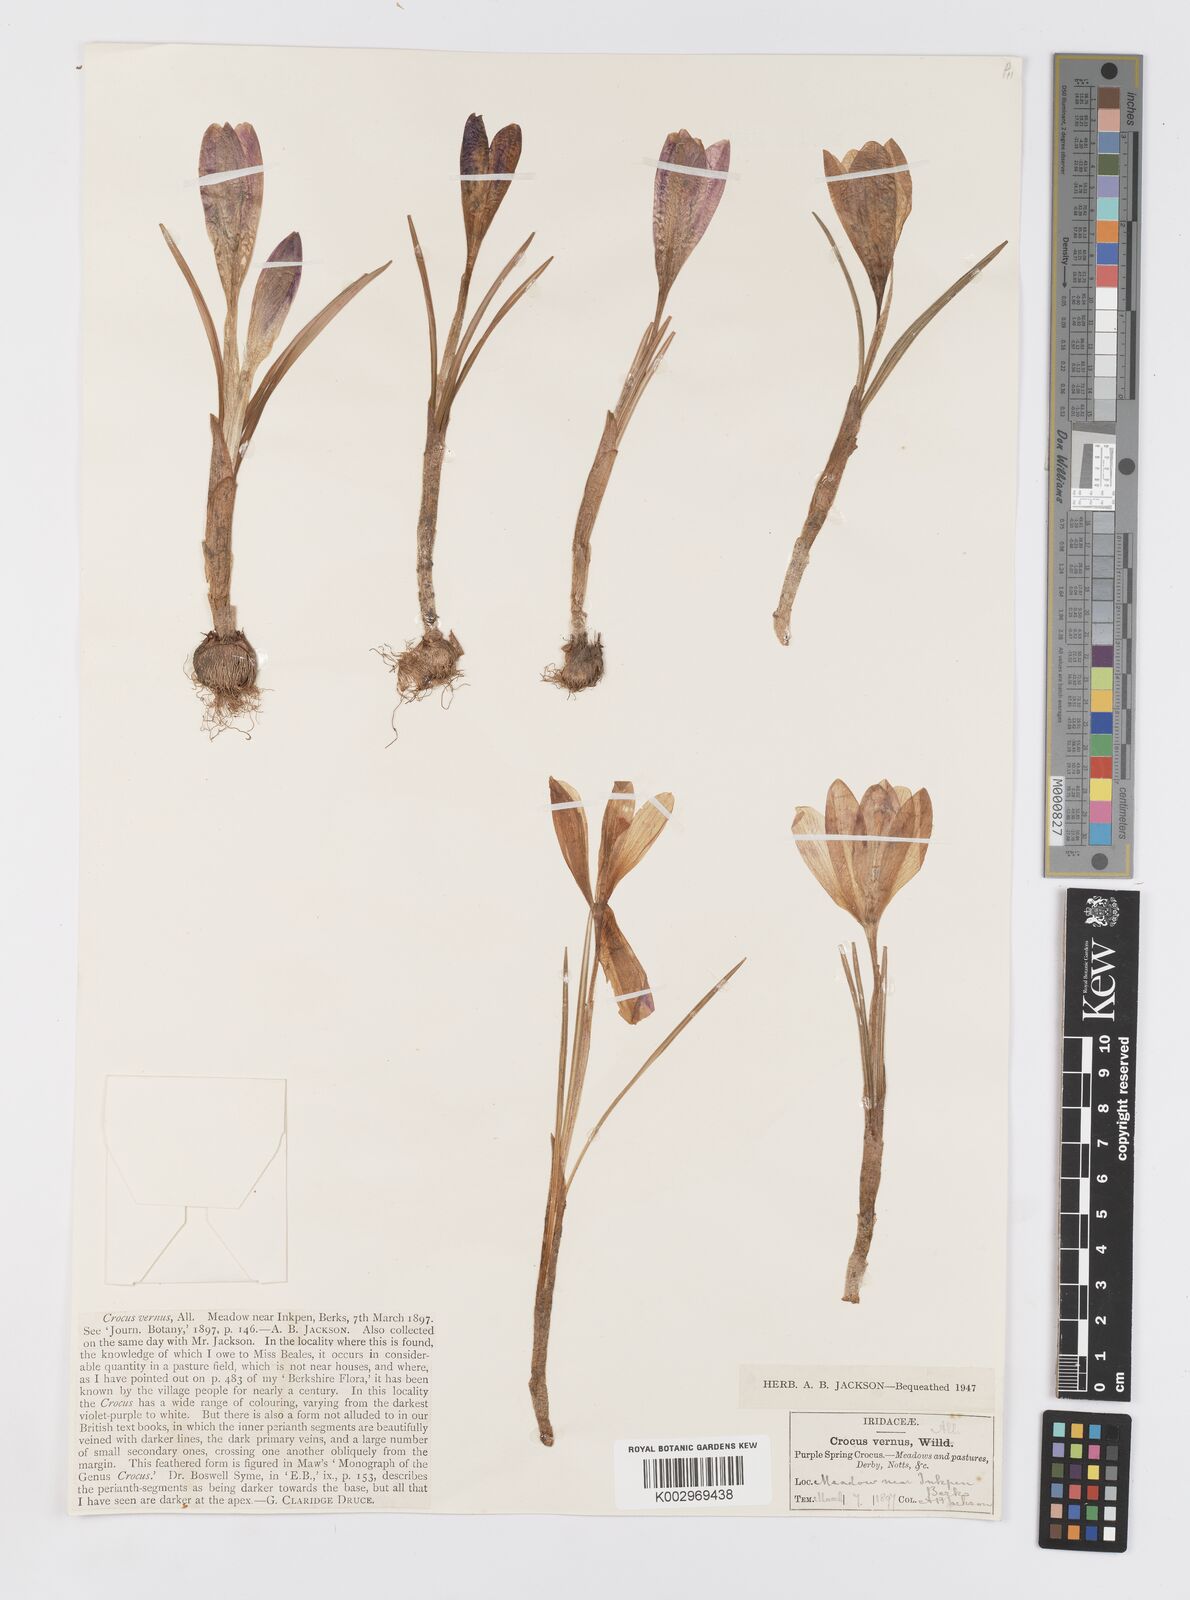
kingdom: Plantae
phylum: Tracheophyta
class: Liliopsida
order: Asparagales
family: Iridaceae
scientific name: Iridaceae
